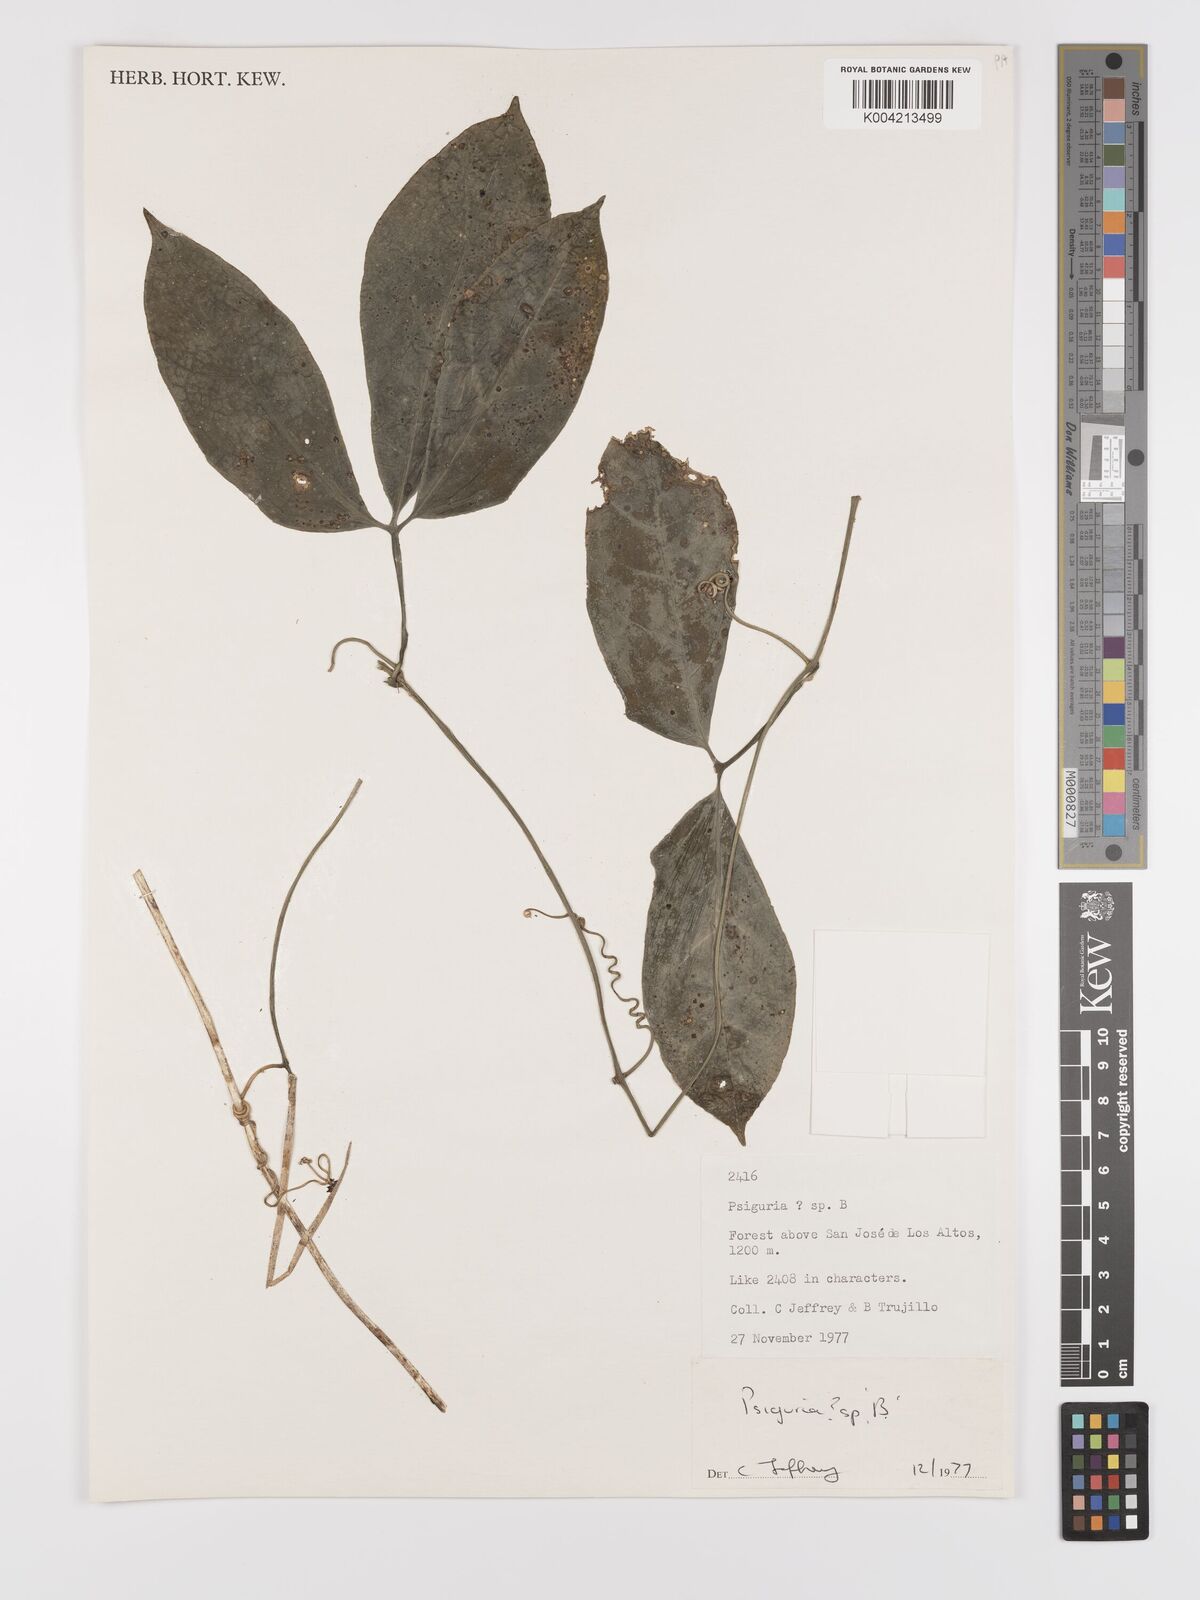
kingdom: Plantae
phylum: Tracheophyta
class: Magnoliopsida
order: Cucurbitales
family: Cucurbitaceae
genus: Psiguria
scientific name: Psiguria
